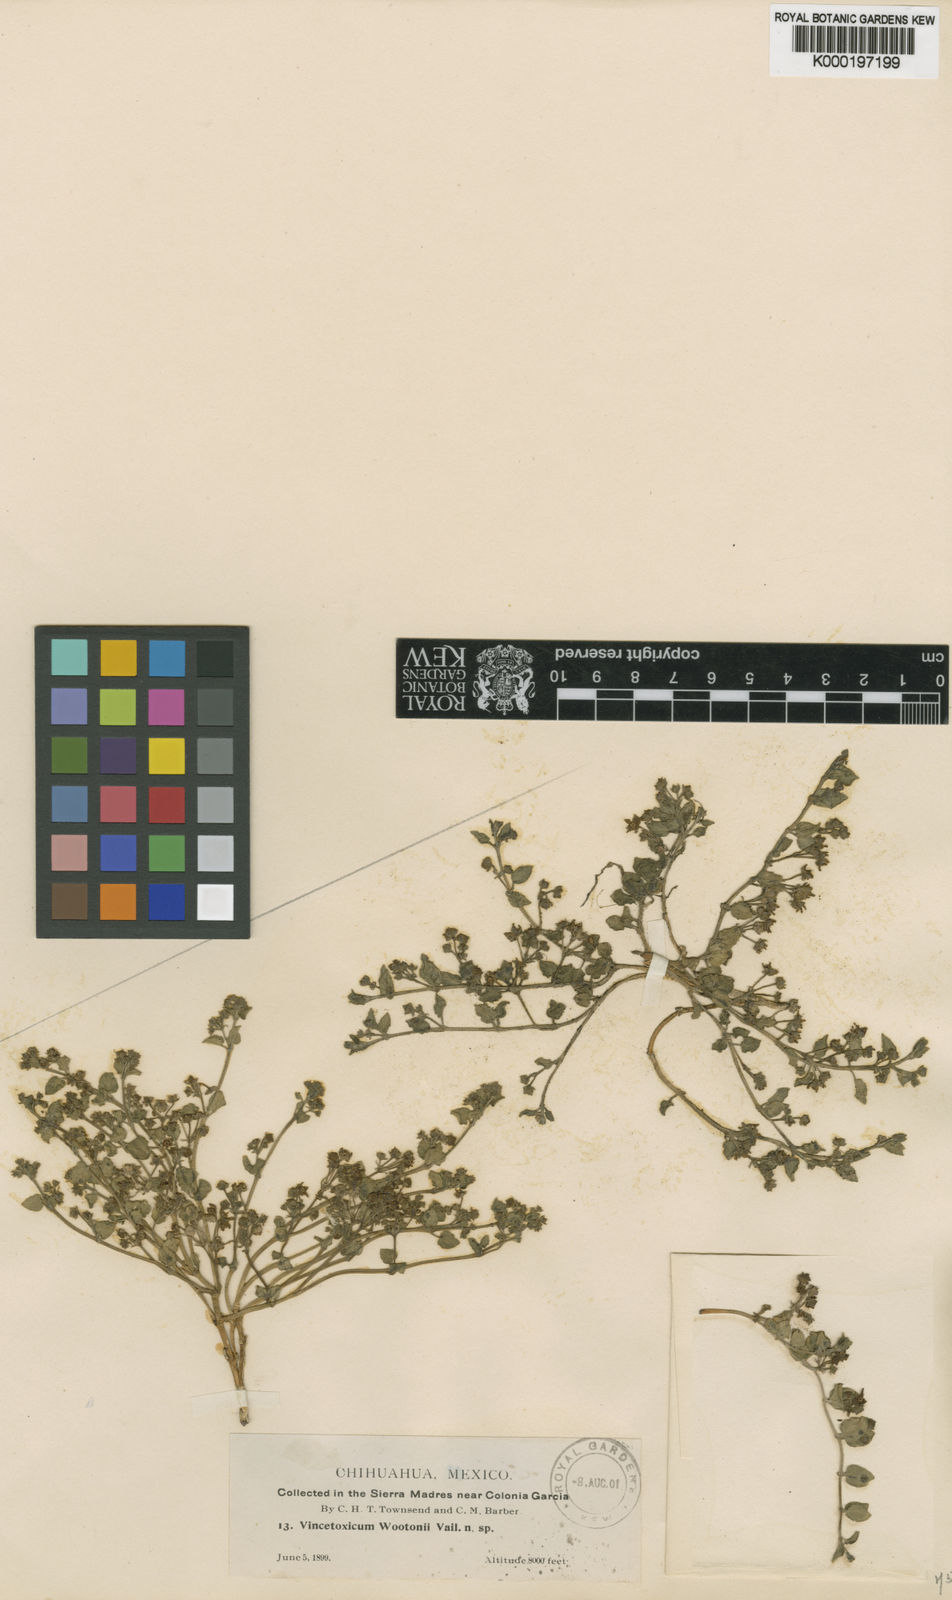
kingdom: Plantae
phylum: Tracheophyta
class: Magnoliopsida
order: Gentianales
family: Apocynaceae
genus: Cynanchum
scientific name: Cynanchum
